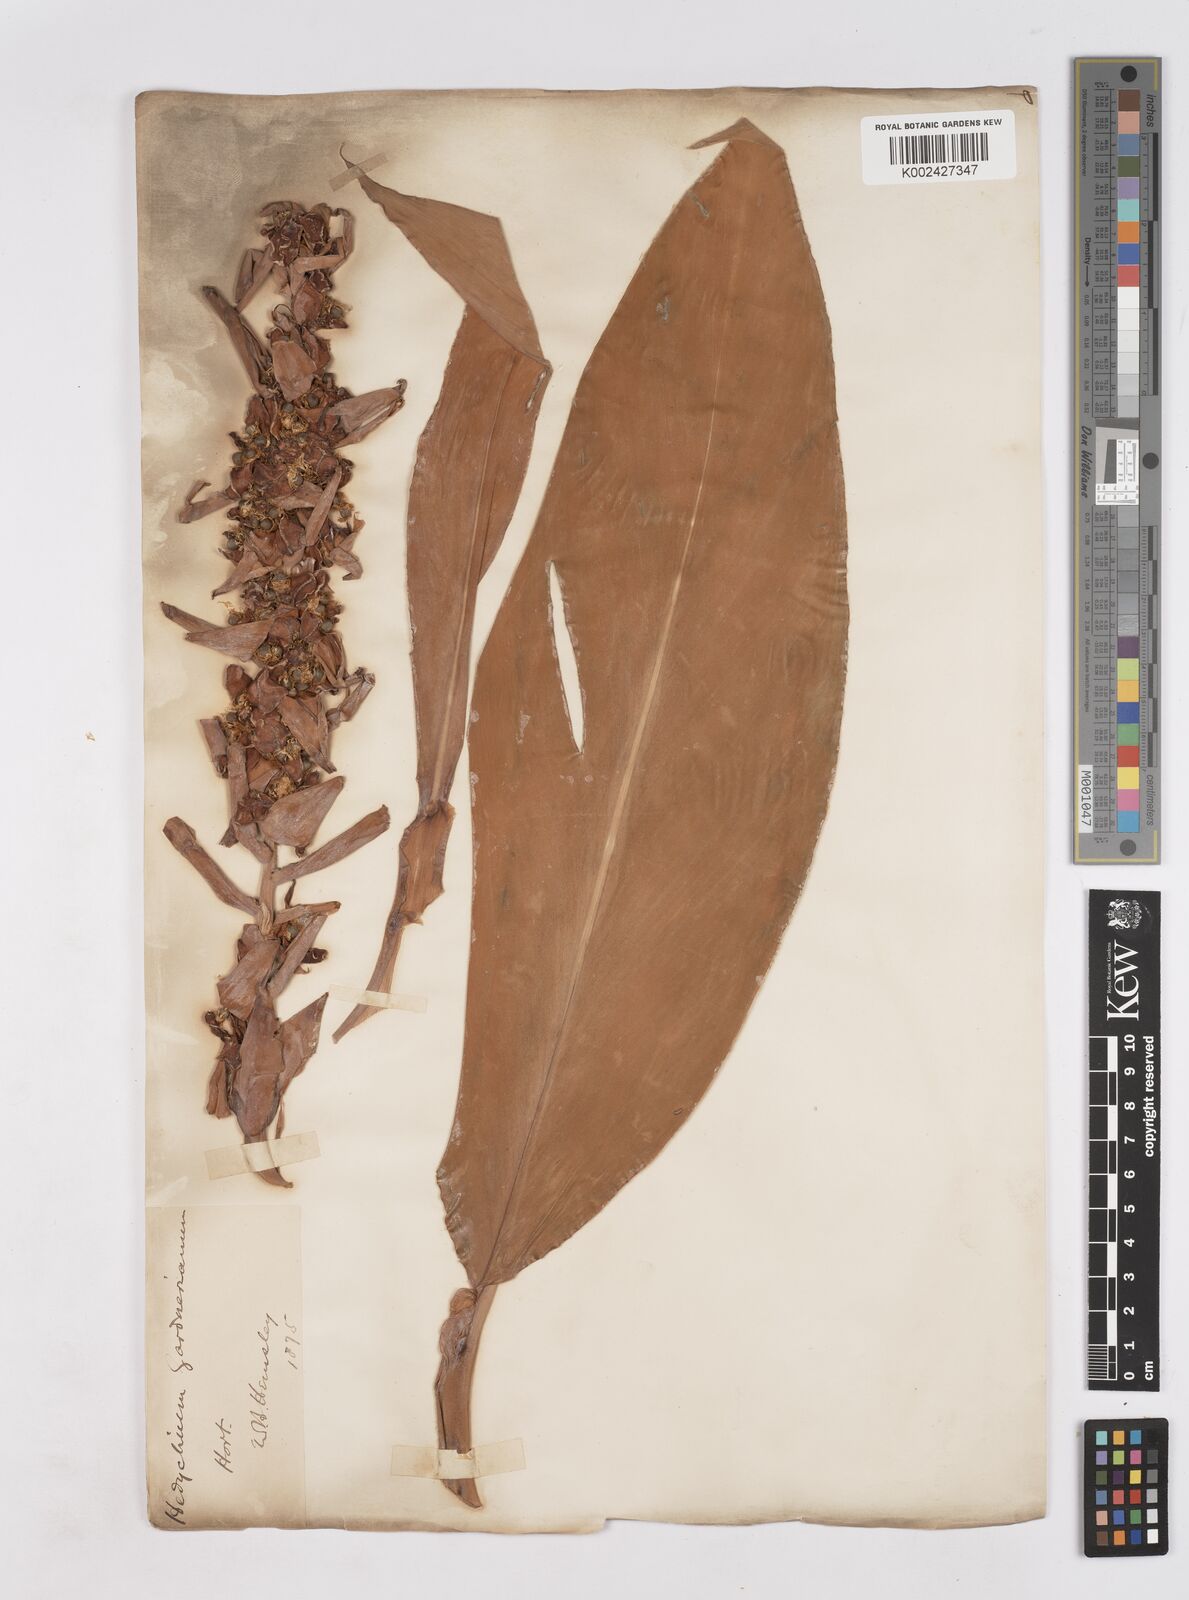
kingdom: Plantae
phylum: Tracheophyta
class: Liliopsida
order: Zingiberales
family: Zingiberaceae
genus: Hedychium
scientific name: Hedychium gardnerianum
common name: Himalayan ginger
